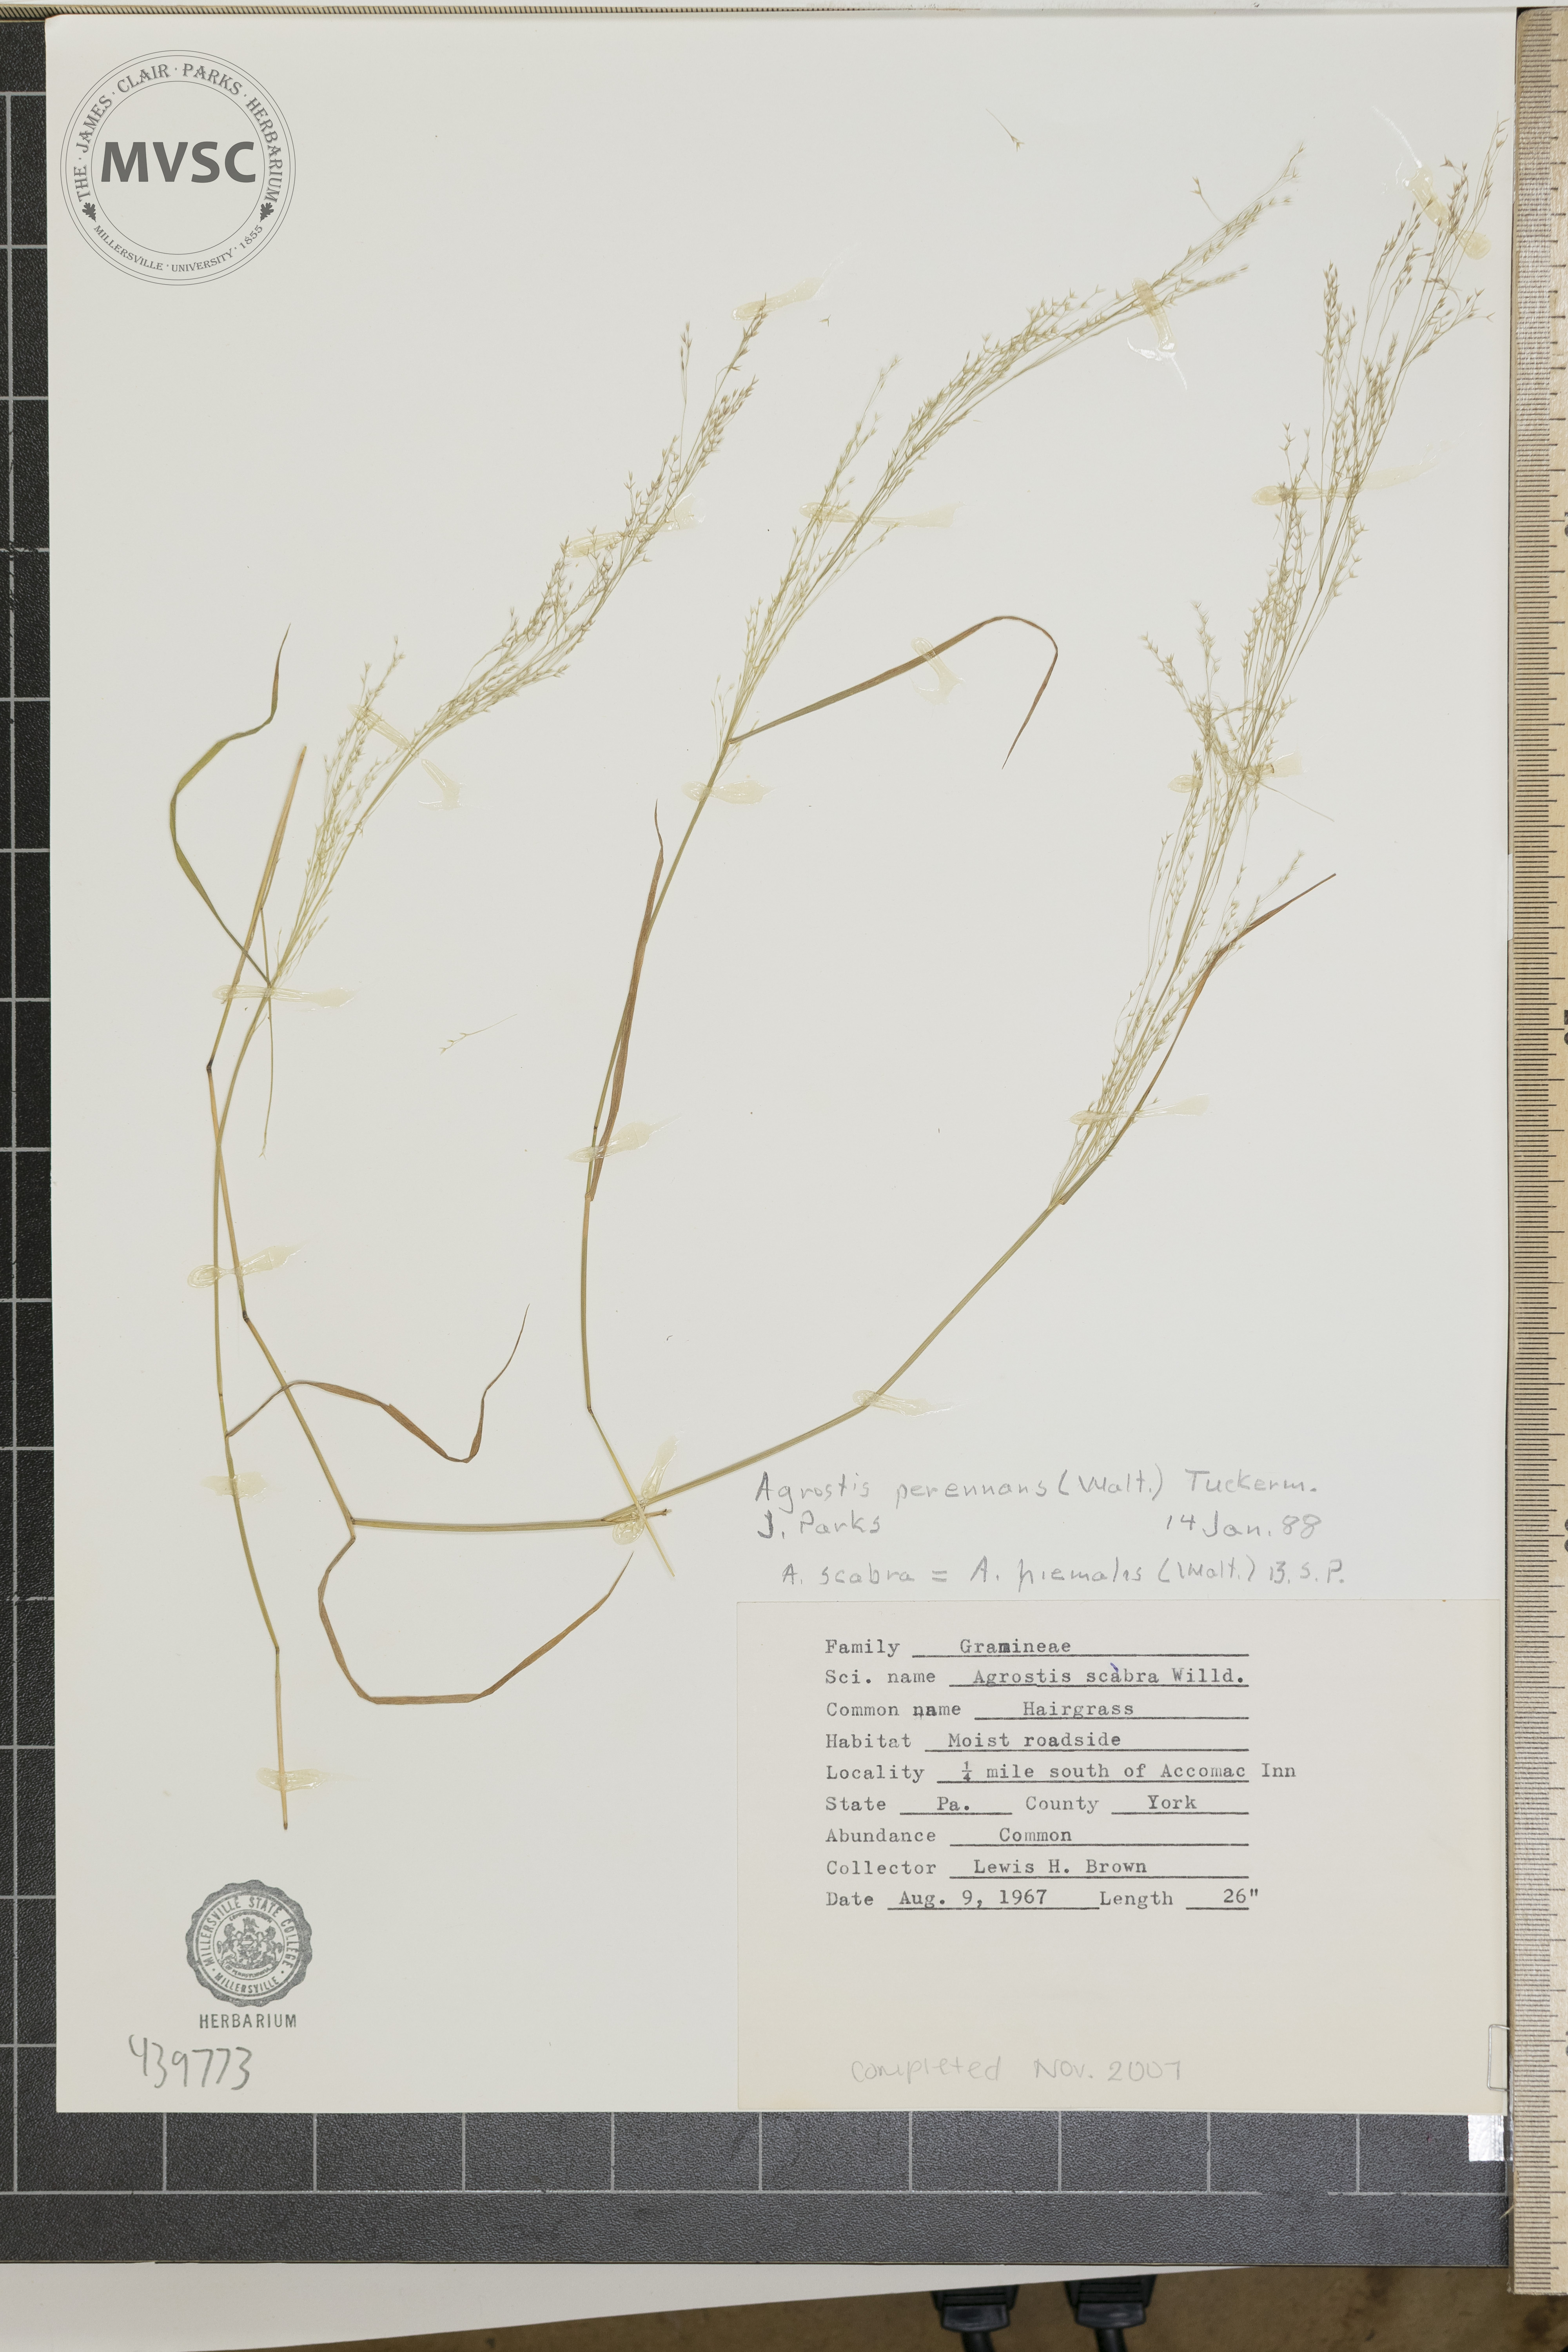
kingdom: Plantae
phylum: Tracheophyta
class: Liliopsida
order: Poales
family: Poaceae
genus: Agrostis
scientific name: Agrostis perennans
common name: Hairgrass
